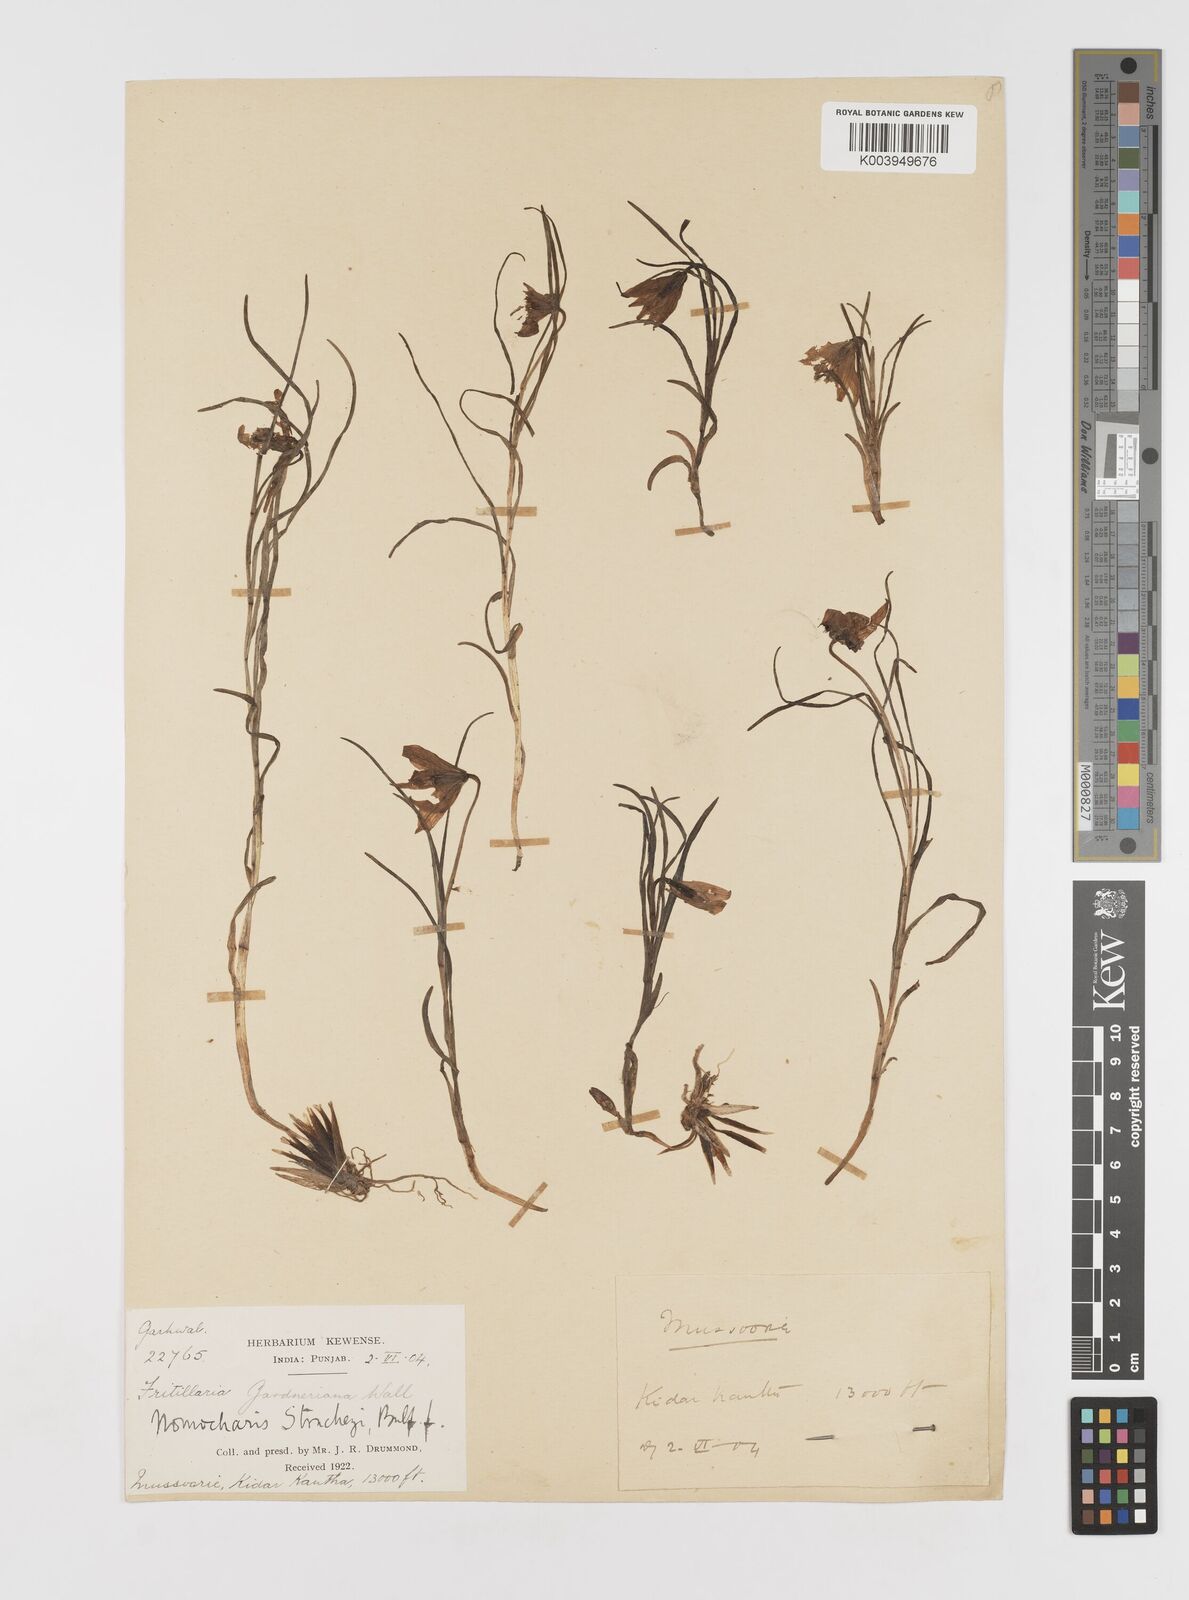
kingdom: Plantae
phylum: Tracheophyta
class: Liliopsida
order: Liliales
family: Liliaceae
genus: Lilium
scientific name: Lilium nanum
